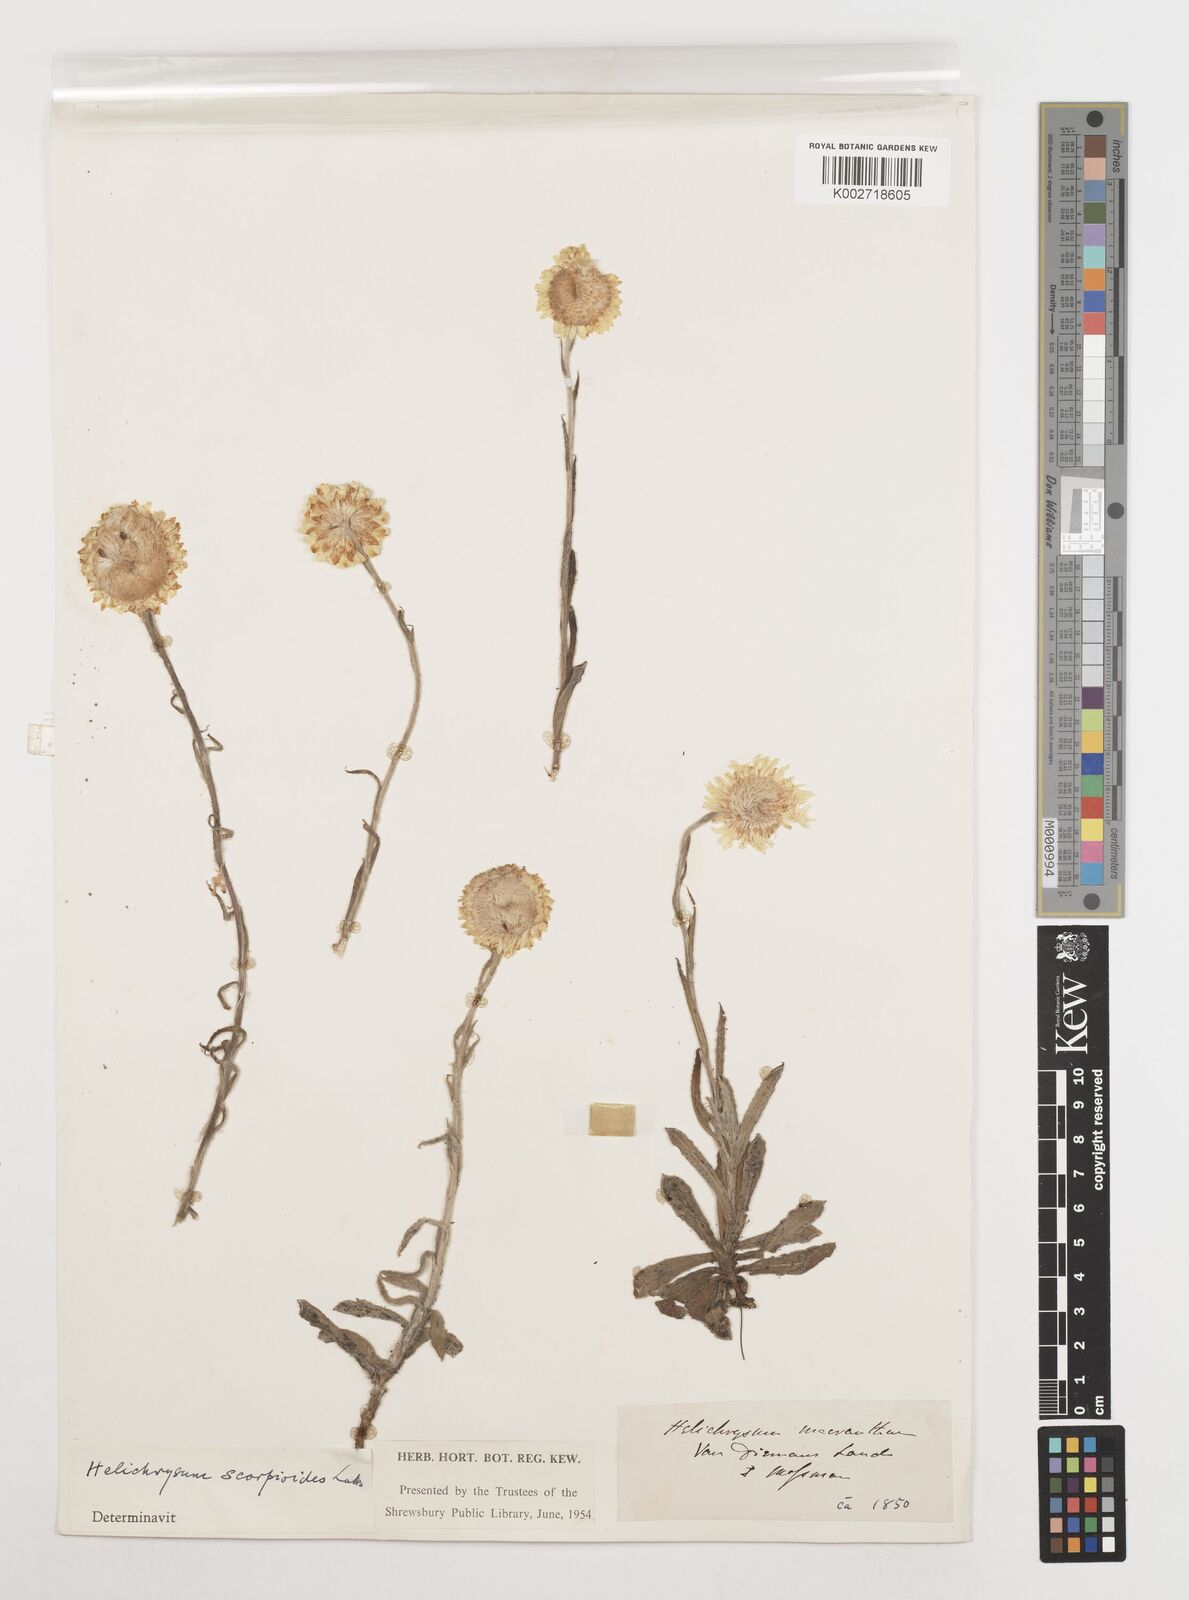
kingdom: Plantae
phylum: Tracheophyta
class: Magnoliopsida
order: Asterales
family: Asteraceae
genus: Coronidium
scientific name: Coronidium scorpioides
